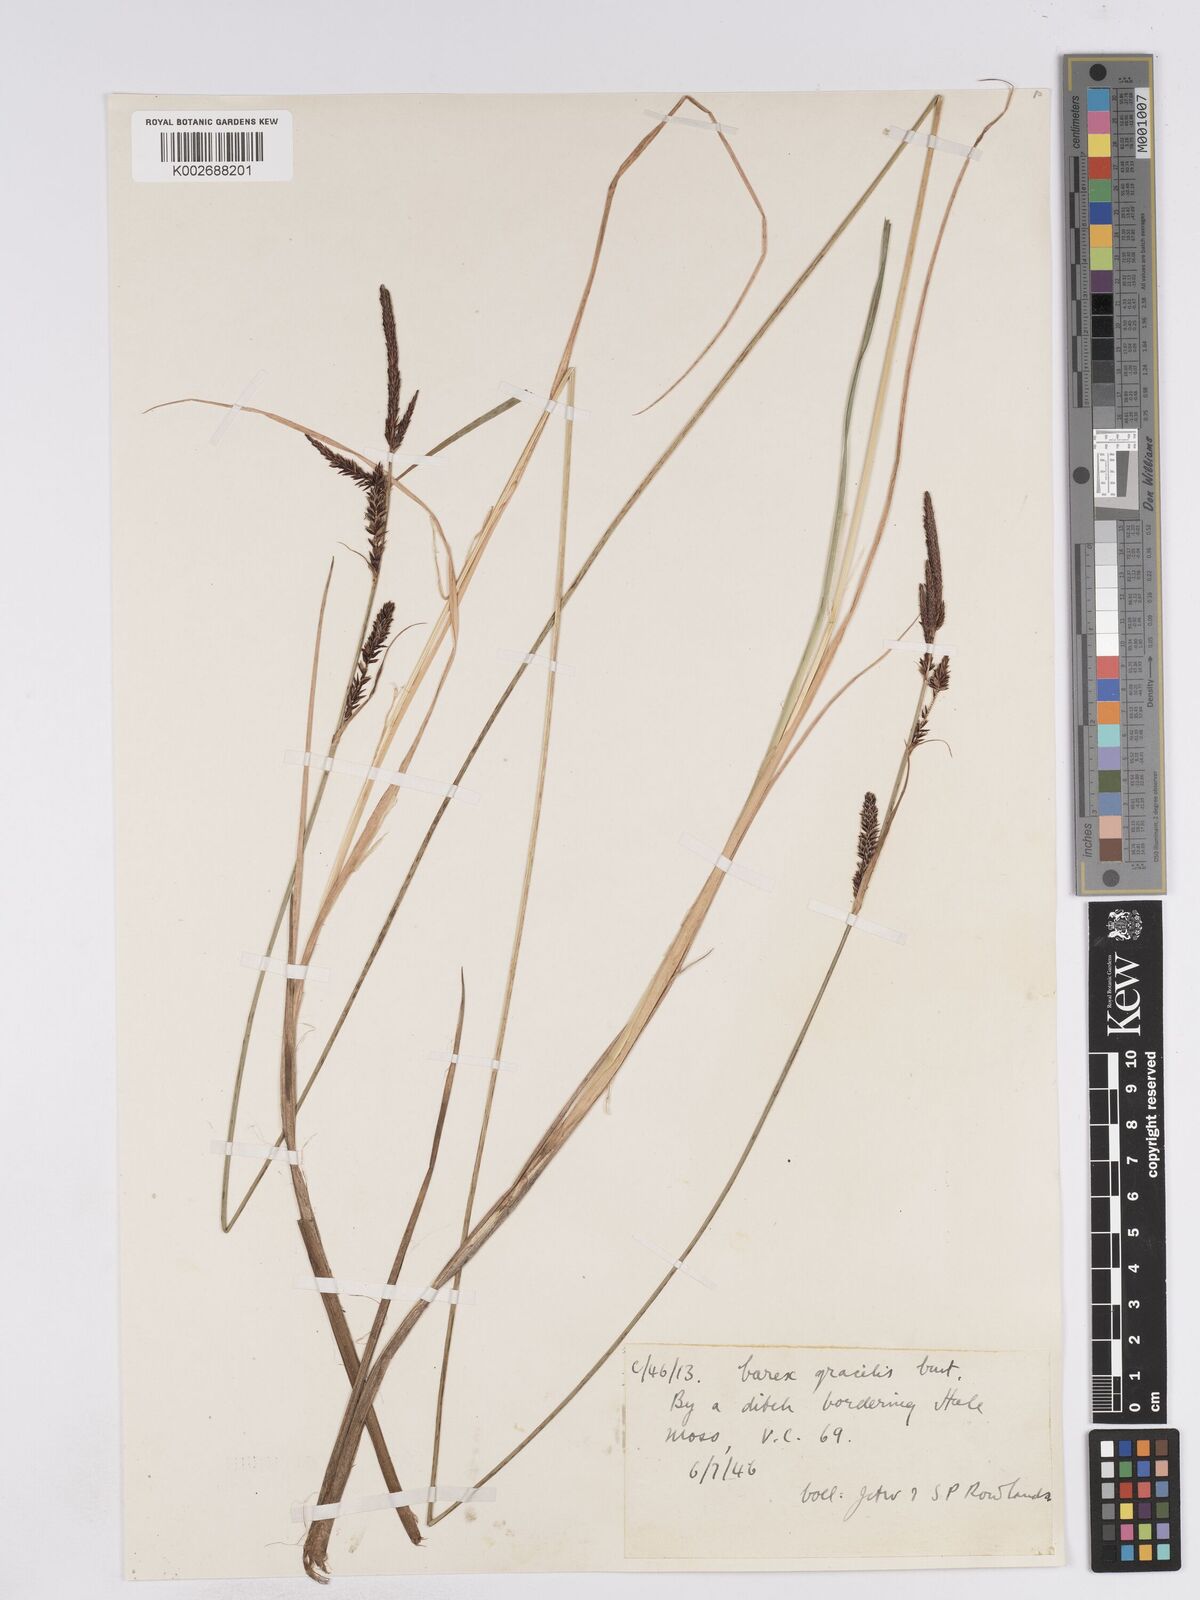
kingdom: Plantae
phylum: Tracheophyta
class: Liliopsida
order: Poales
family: Cyperaceae
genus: Carex
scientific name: Carex elata
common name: Tufted sedge
